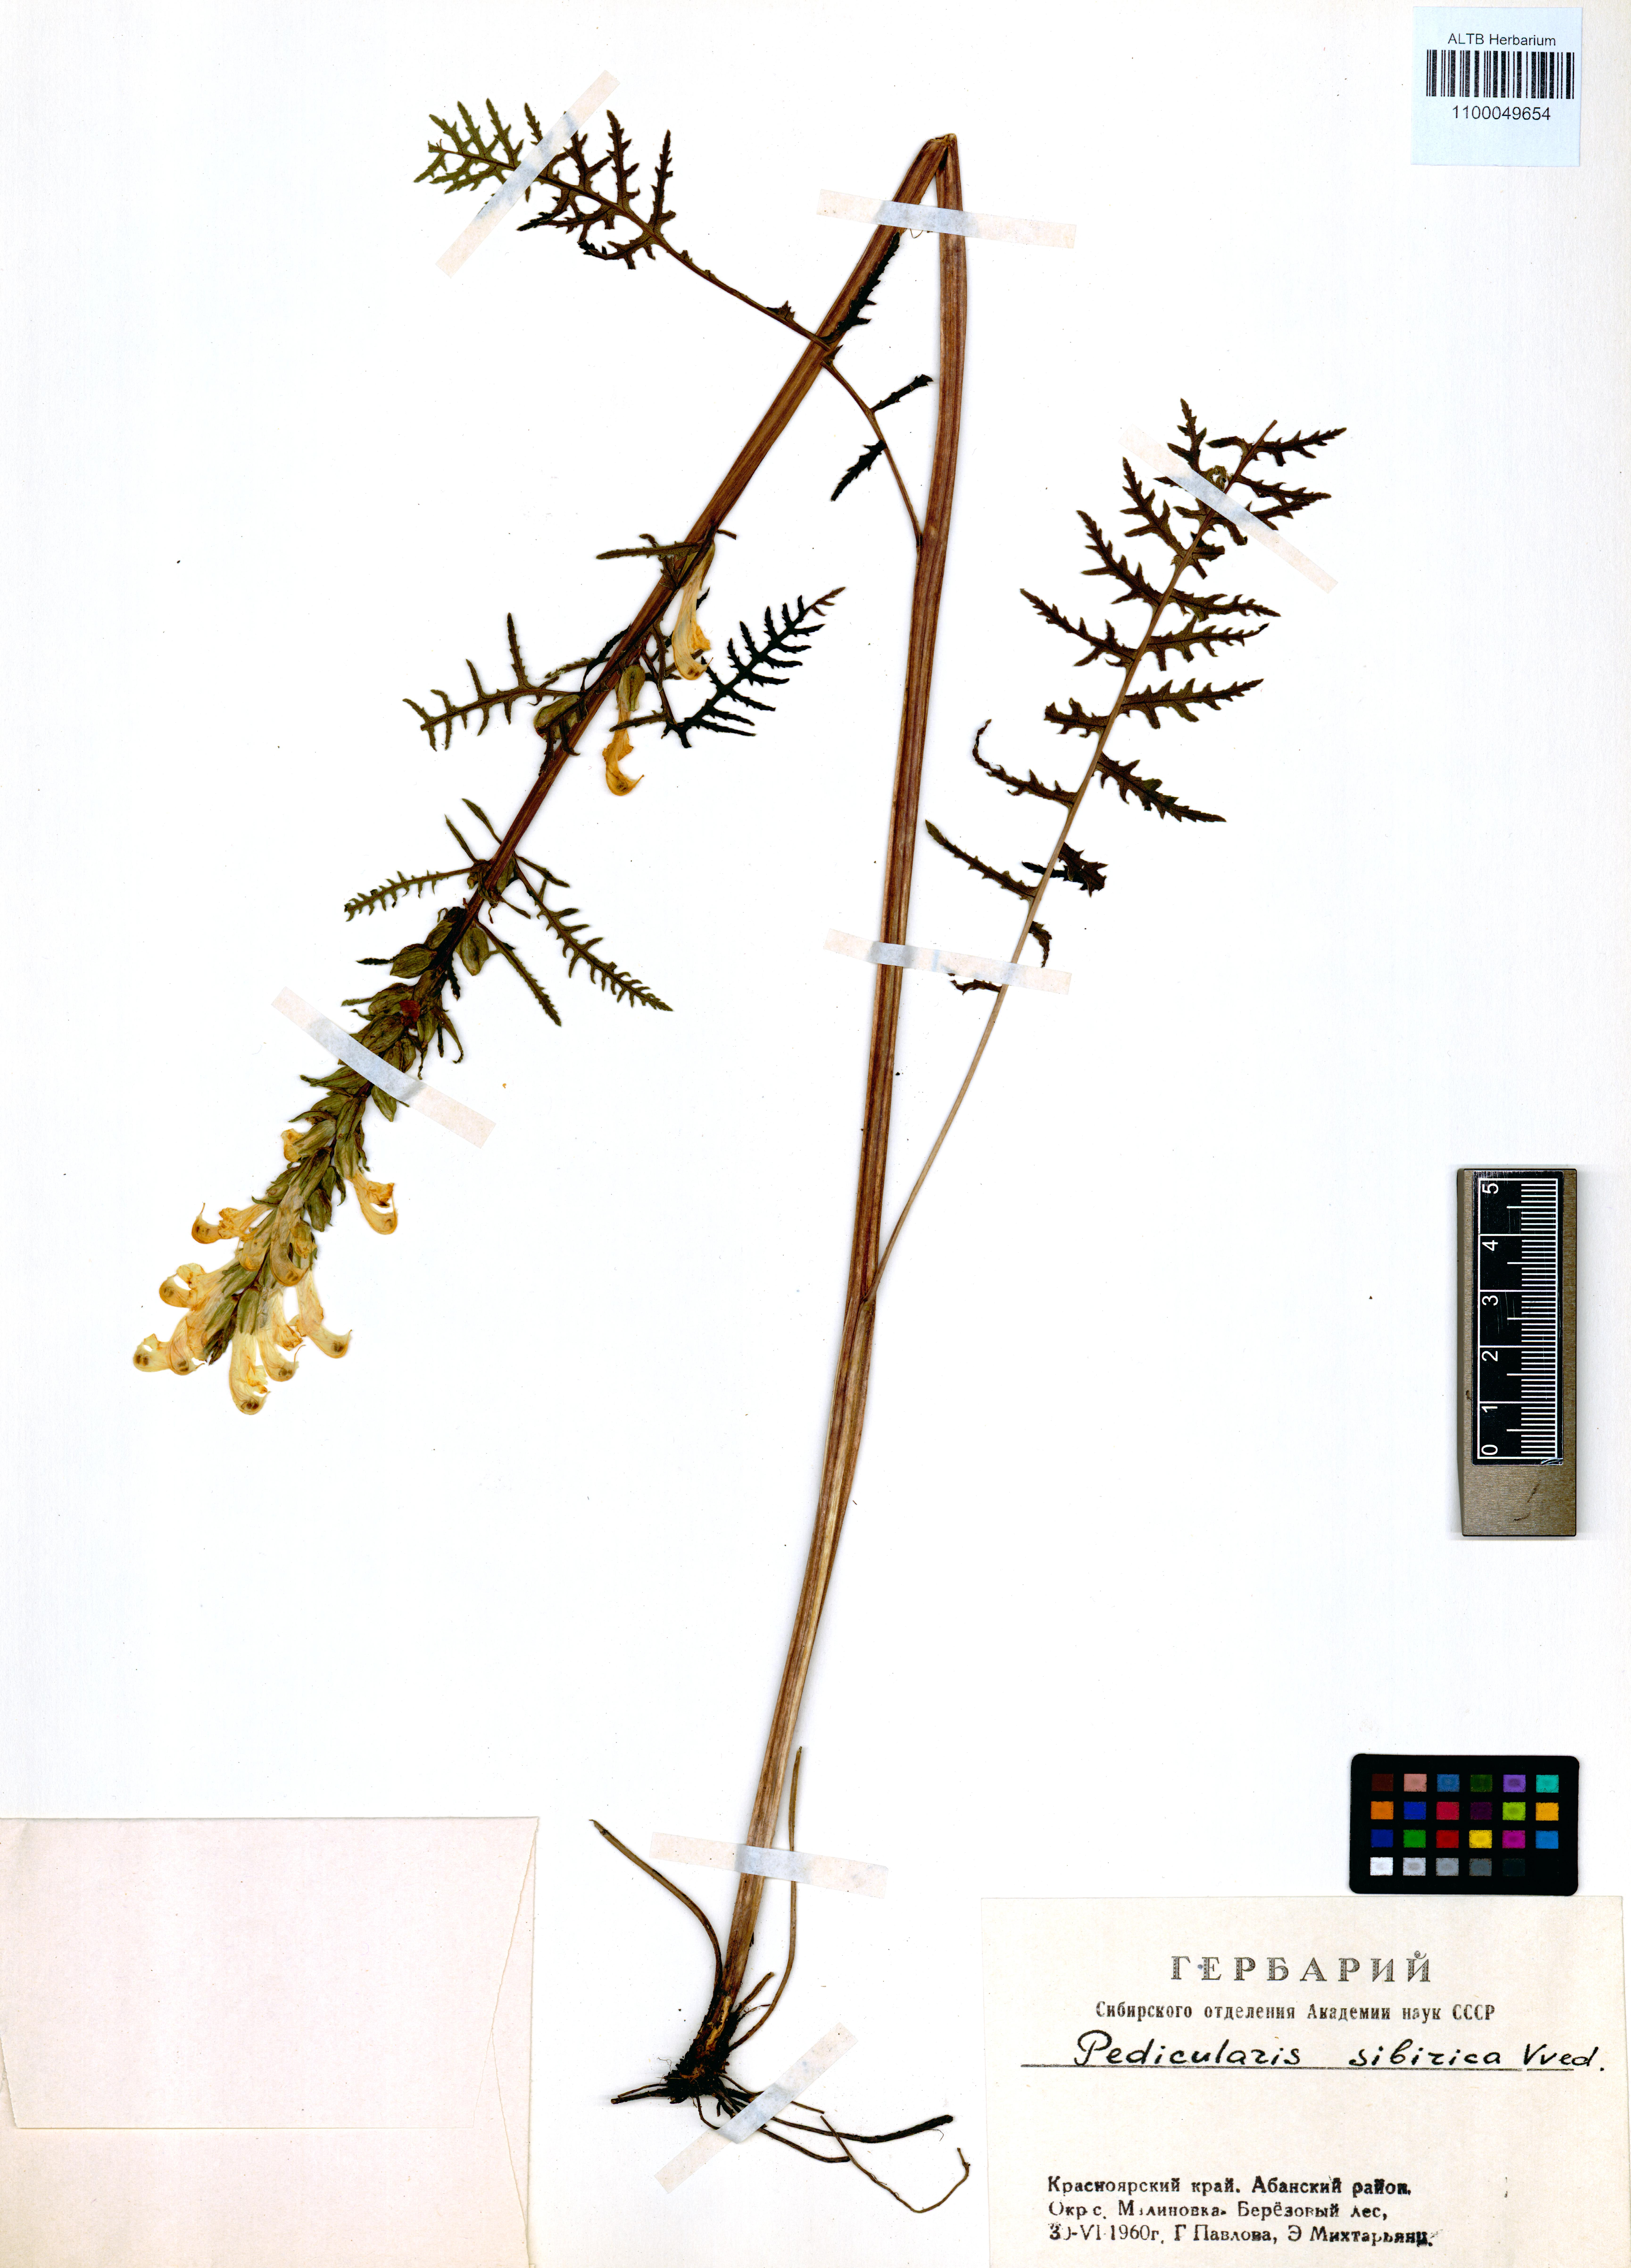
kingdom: Plantae
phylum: Tracheophyta
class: Magnoliopsida
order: Lamiales
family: Orobanchaceae
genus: Pedicularis
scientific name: Pedicularis sibirica
